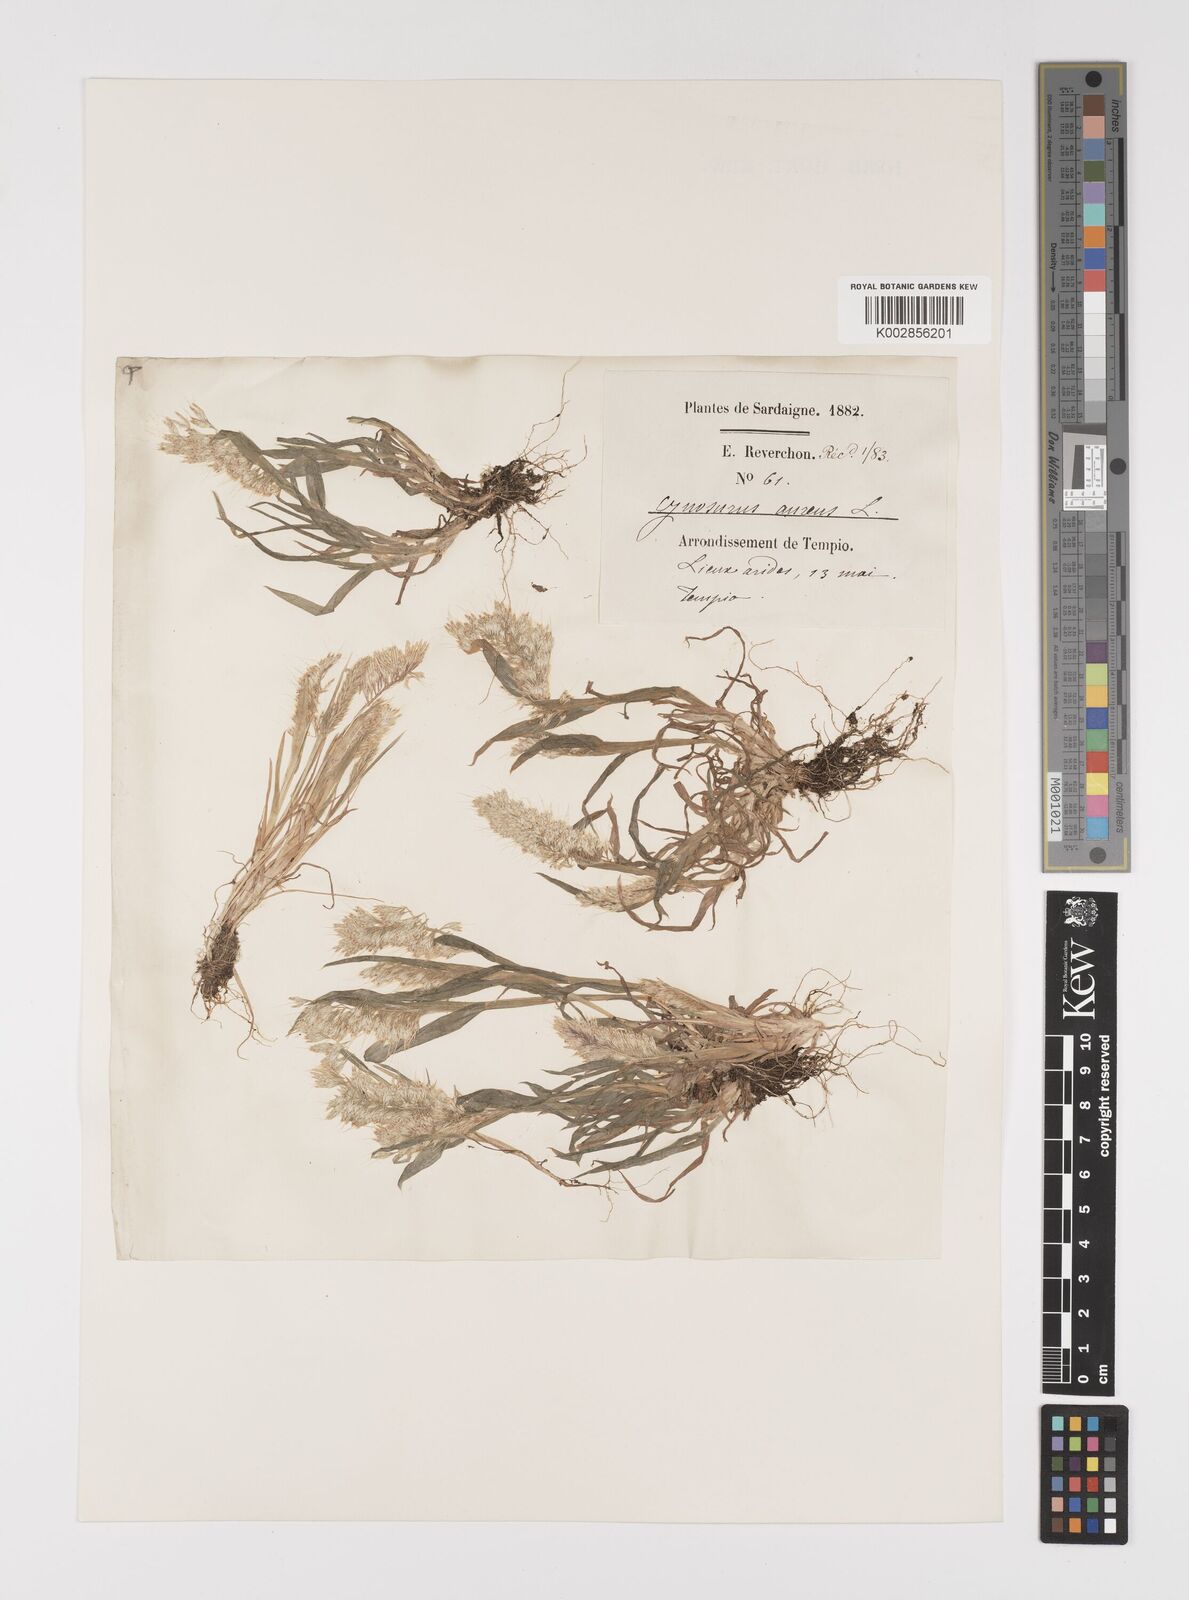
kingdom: Plantae
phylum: Tracheophyta
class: Liliopsida
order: Poales
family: Poaceae
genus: Lamarckia
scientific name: Lamarckia aurea
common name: Golden dog's-tail
